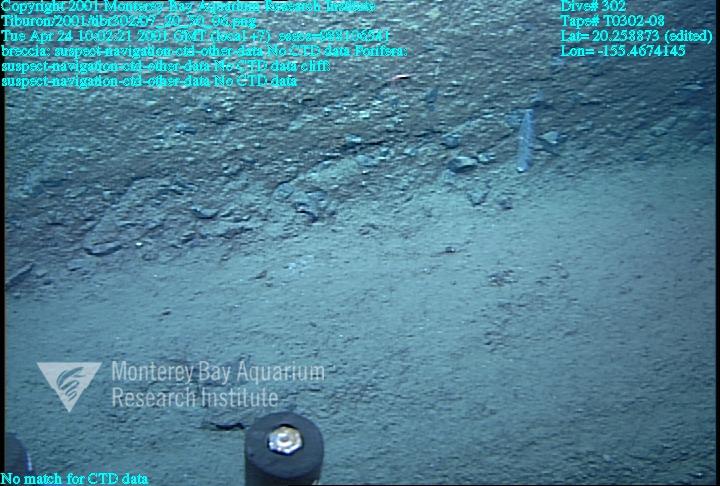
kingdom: Animalia
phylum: Porifera
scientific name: Porifera
